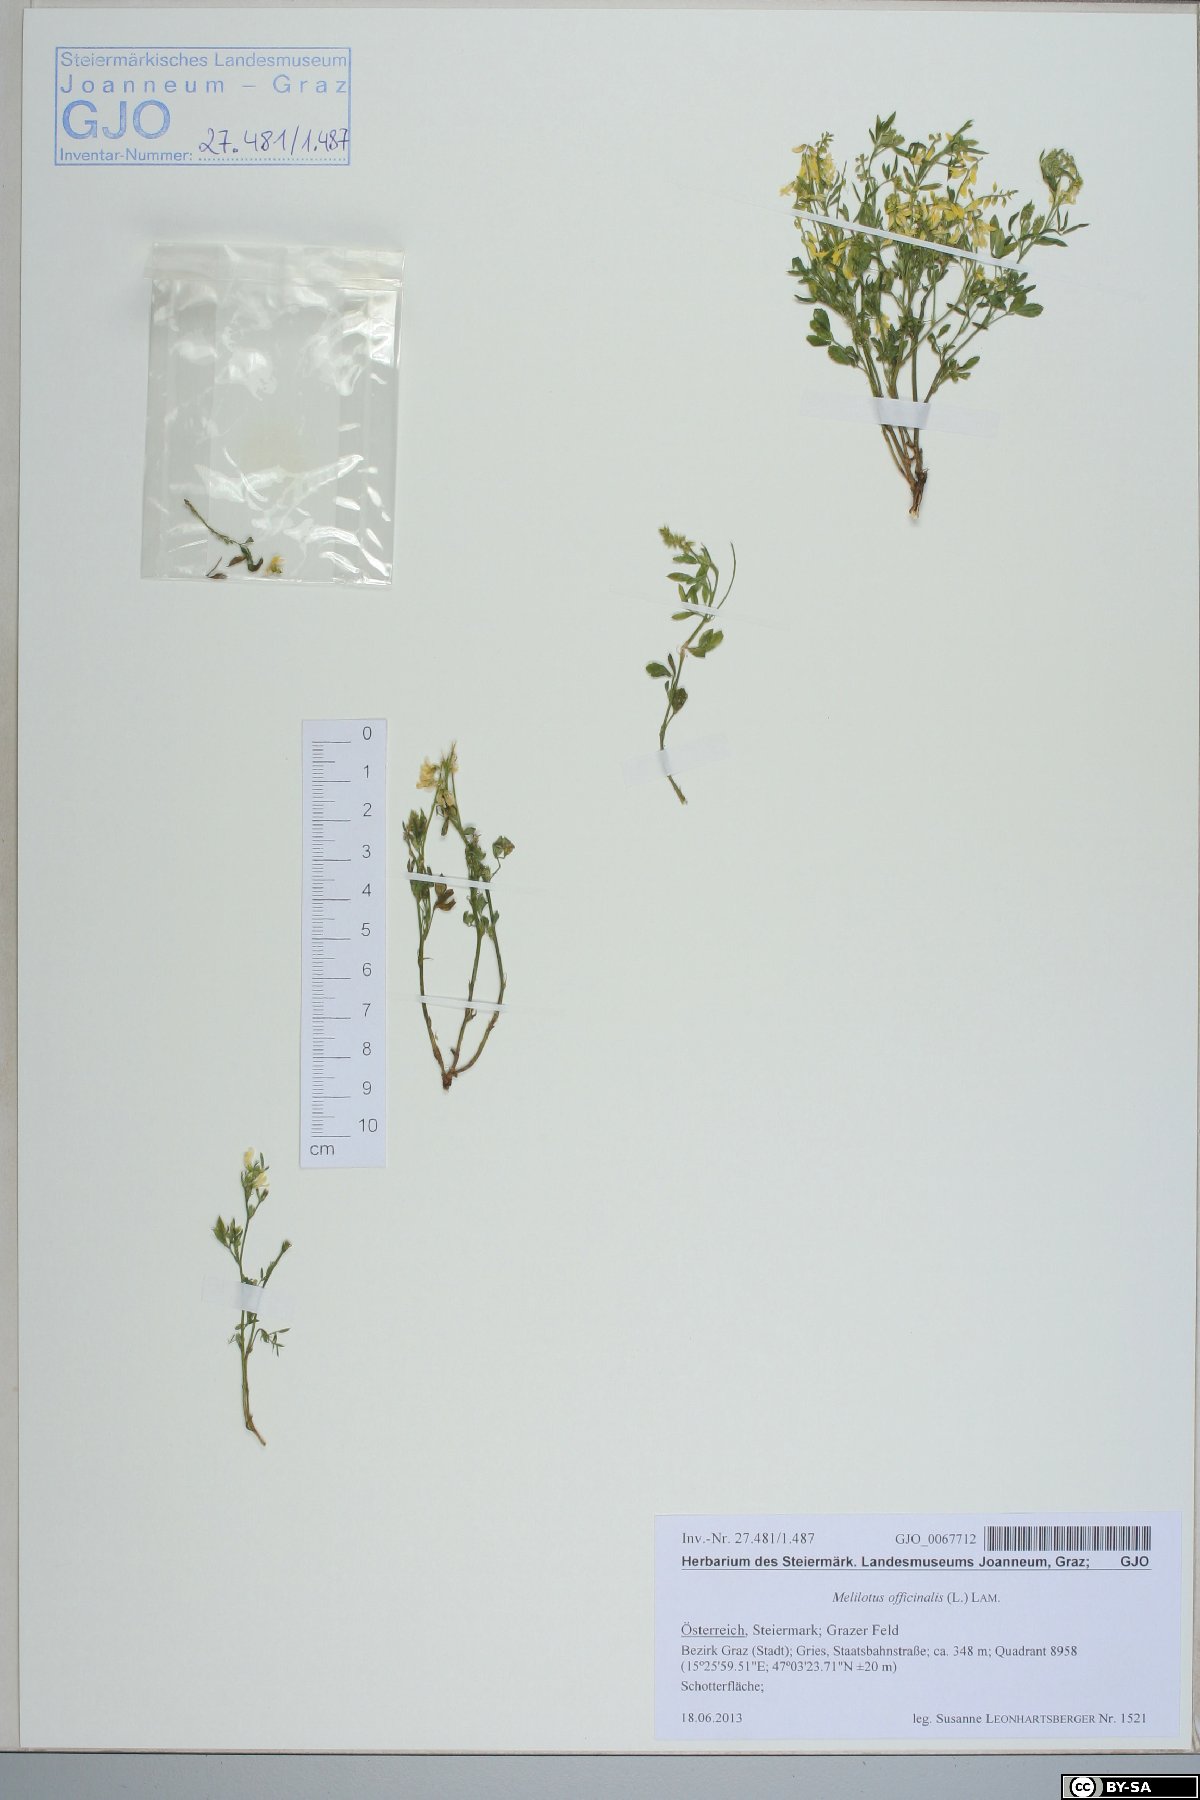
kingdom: Plantae
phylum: Tracheophyta
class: Magnoliopsida
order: Fabales
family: Fabaceae
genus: Melilotus
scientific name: Melilotus officinalis
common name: Sweetclover
